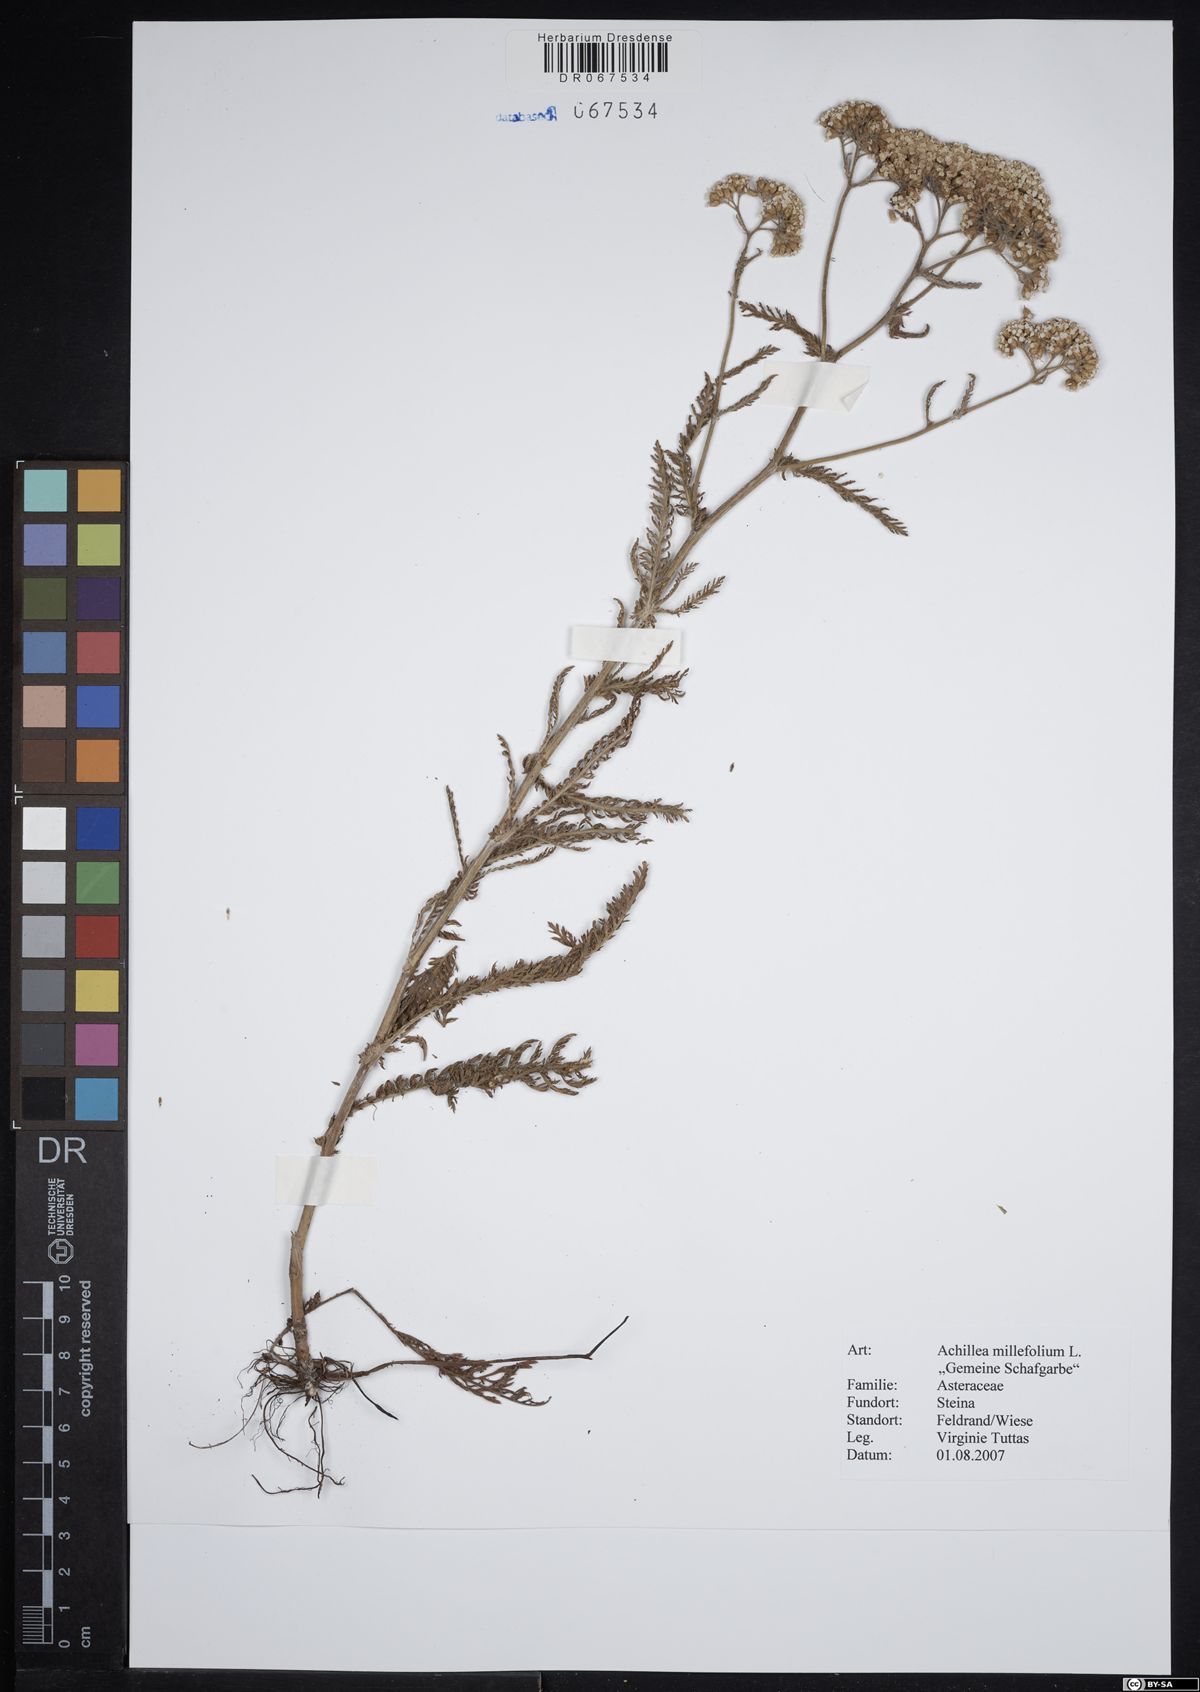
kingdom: Plantae
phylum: Tracheophyta
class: Magnoliopsida
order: Asterales
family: Asteraceae
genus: Achillea
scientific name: Achillea millefolium
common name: Yarrow
